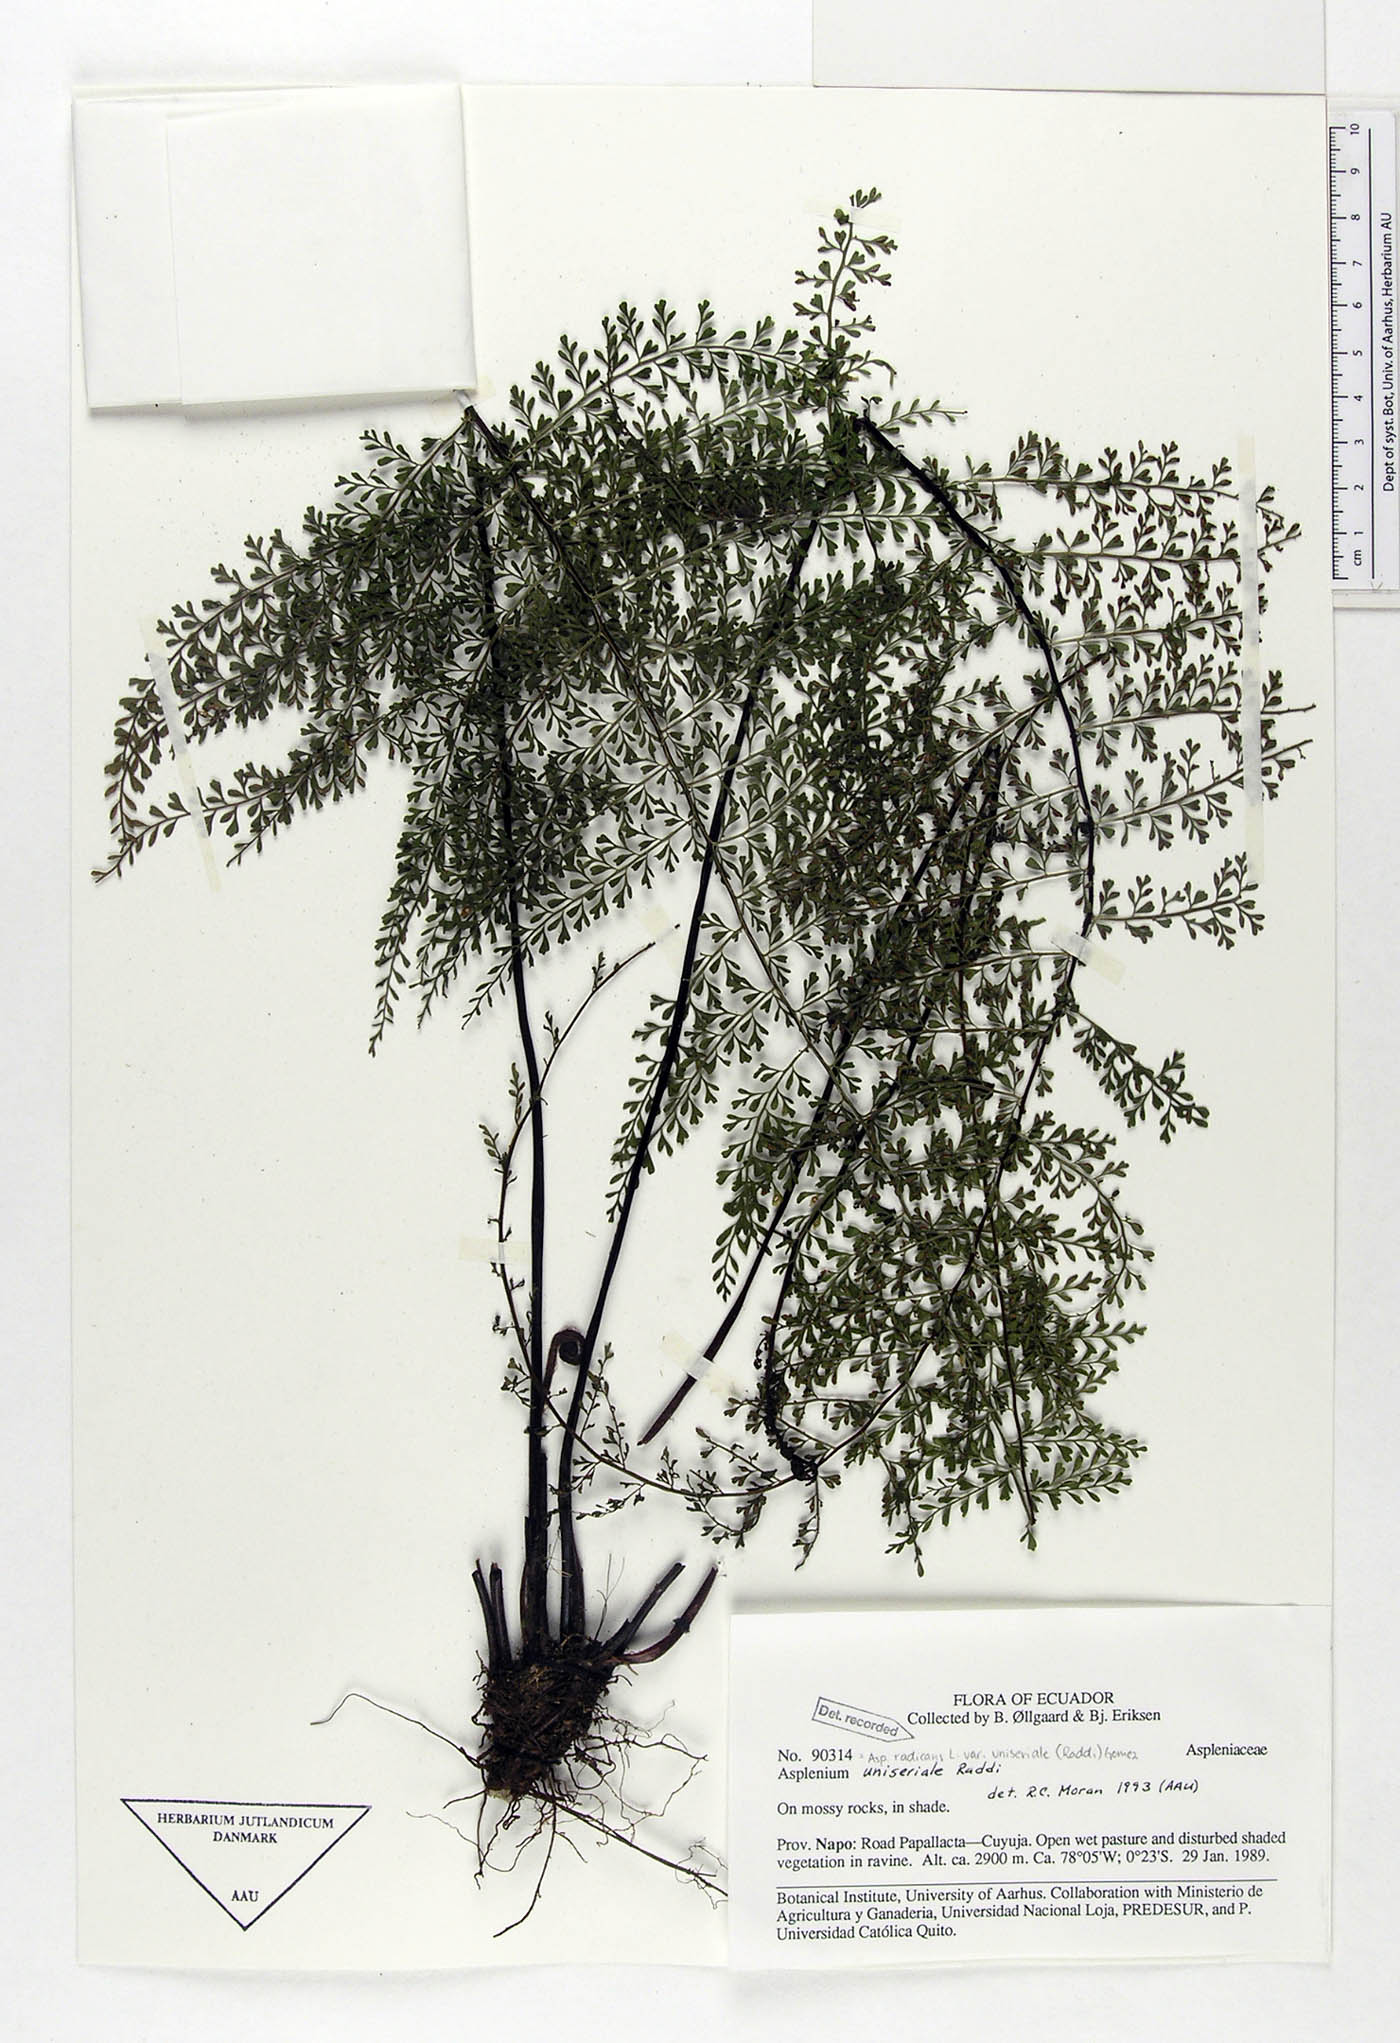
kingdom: Plantae
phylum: Tracheophyta
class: Polypodiopsida
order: Polypodiales
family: Aspleniaceae
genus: Asplenium
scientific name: Asplenium uniseriale
